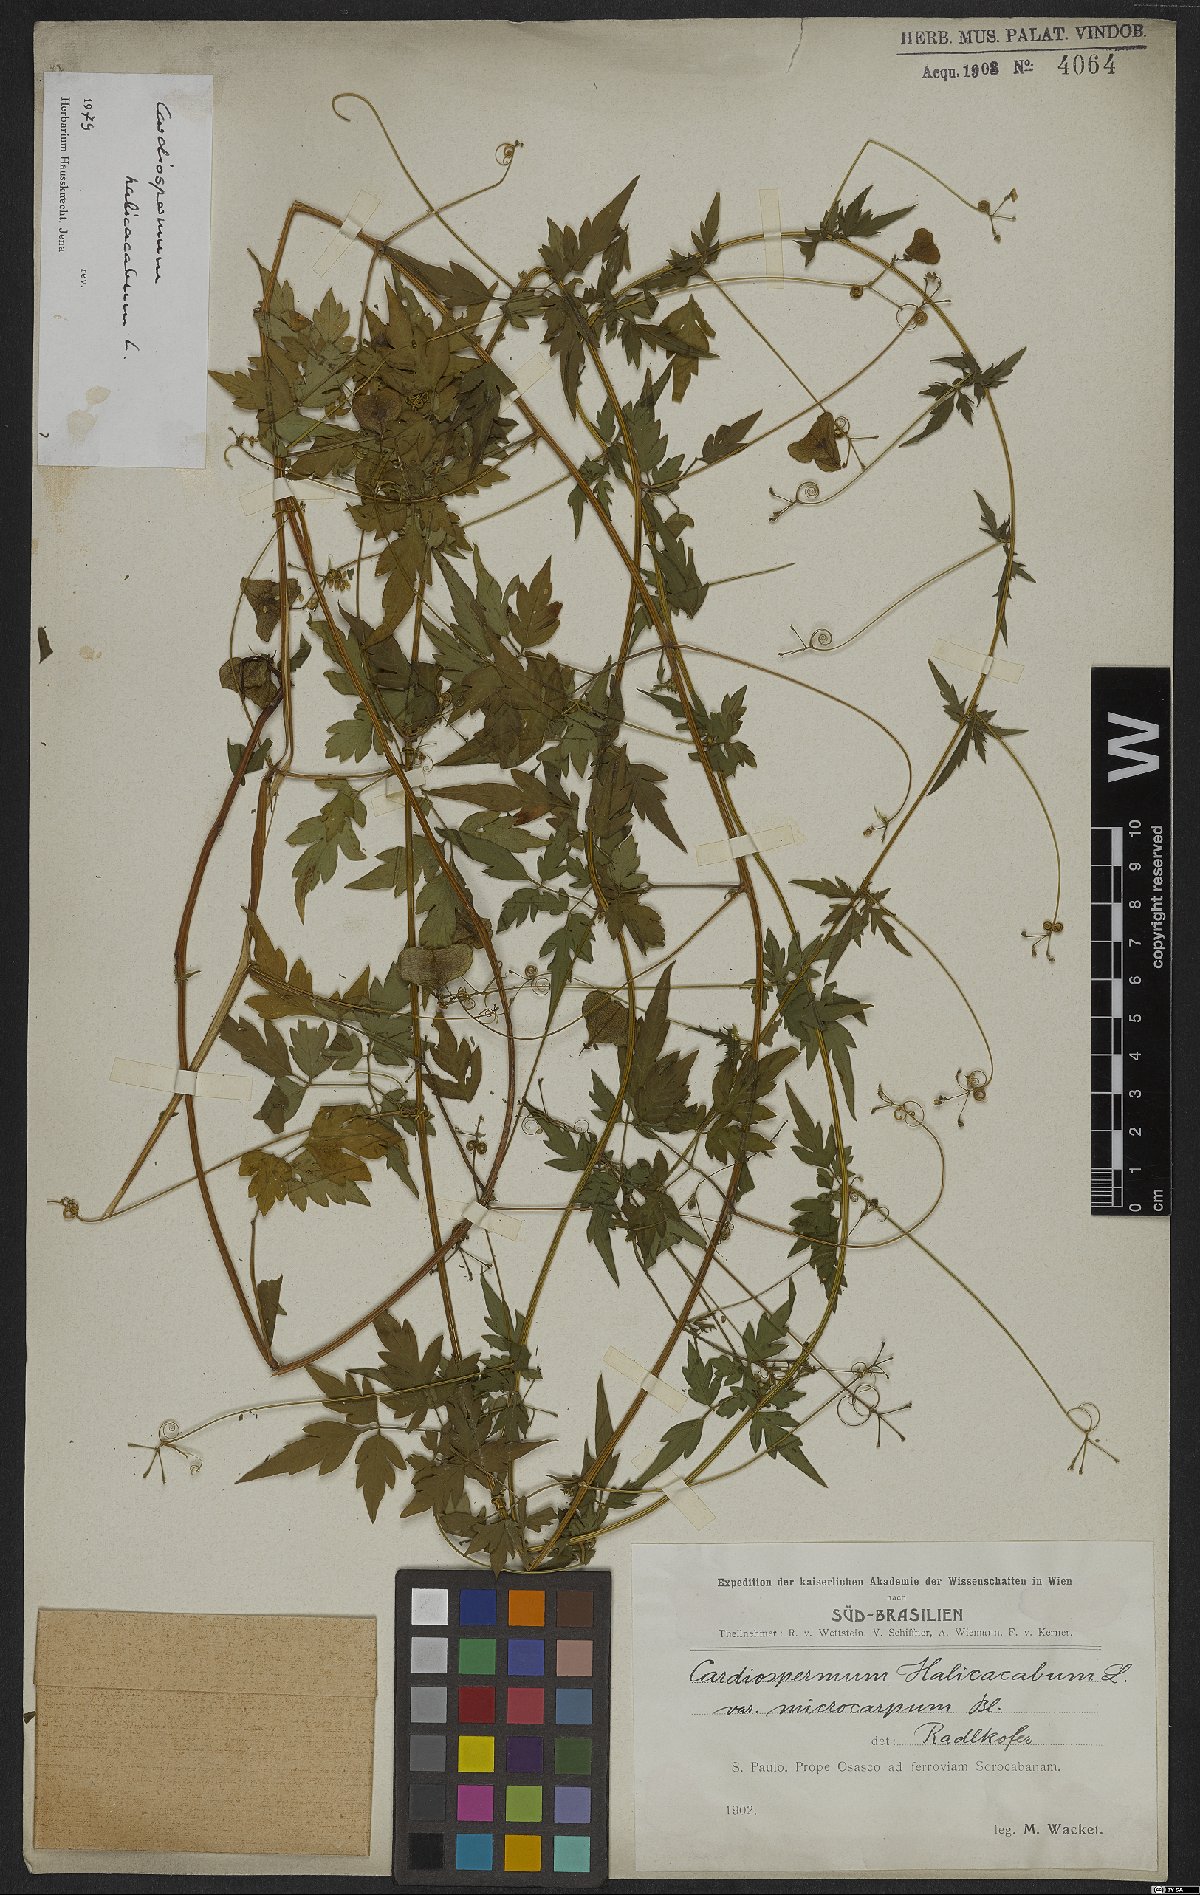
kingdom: Plantae
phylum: Tracheophyta
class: Magnoliopsida
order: Sapindales
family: Sapindaceae
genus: Cardiospermum
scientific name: Cardiospermum halicacabum
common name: Balloon vine
